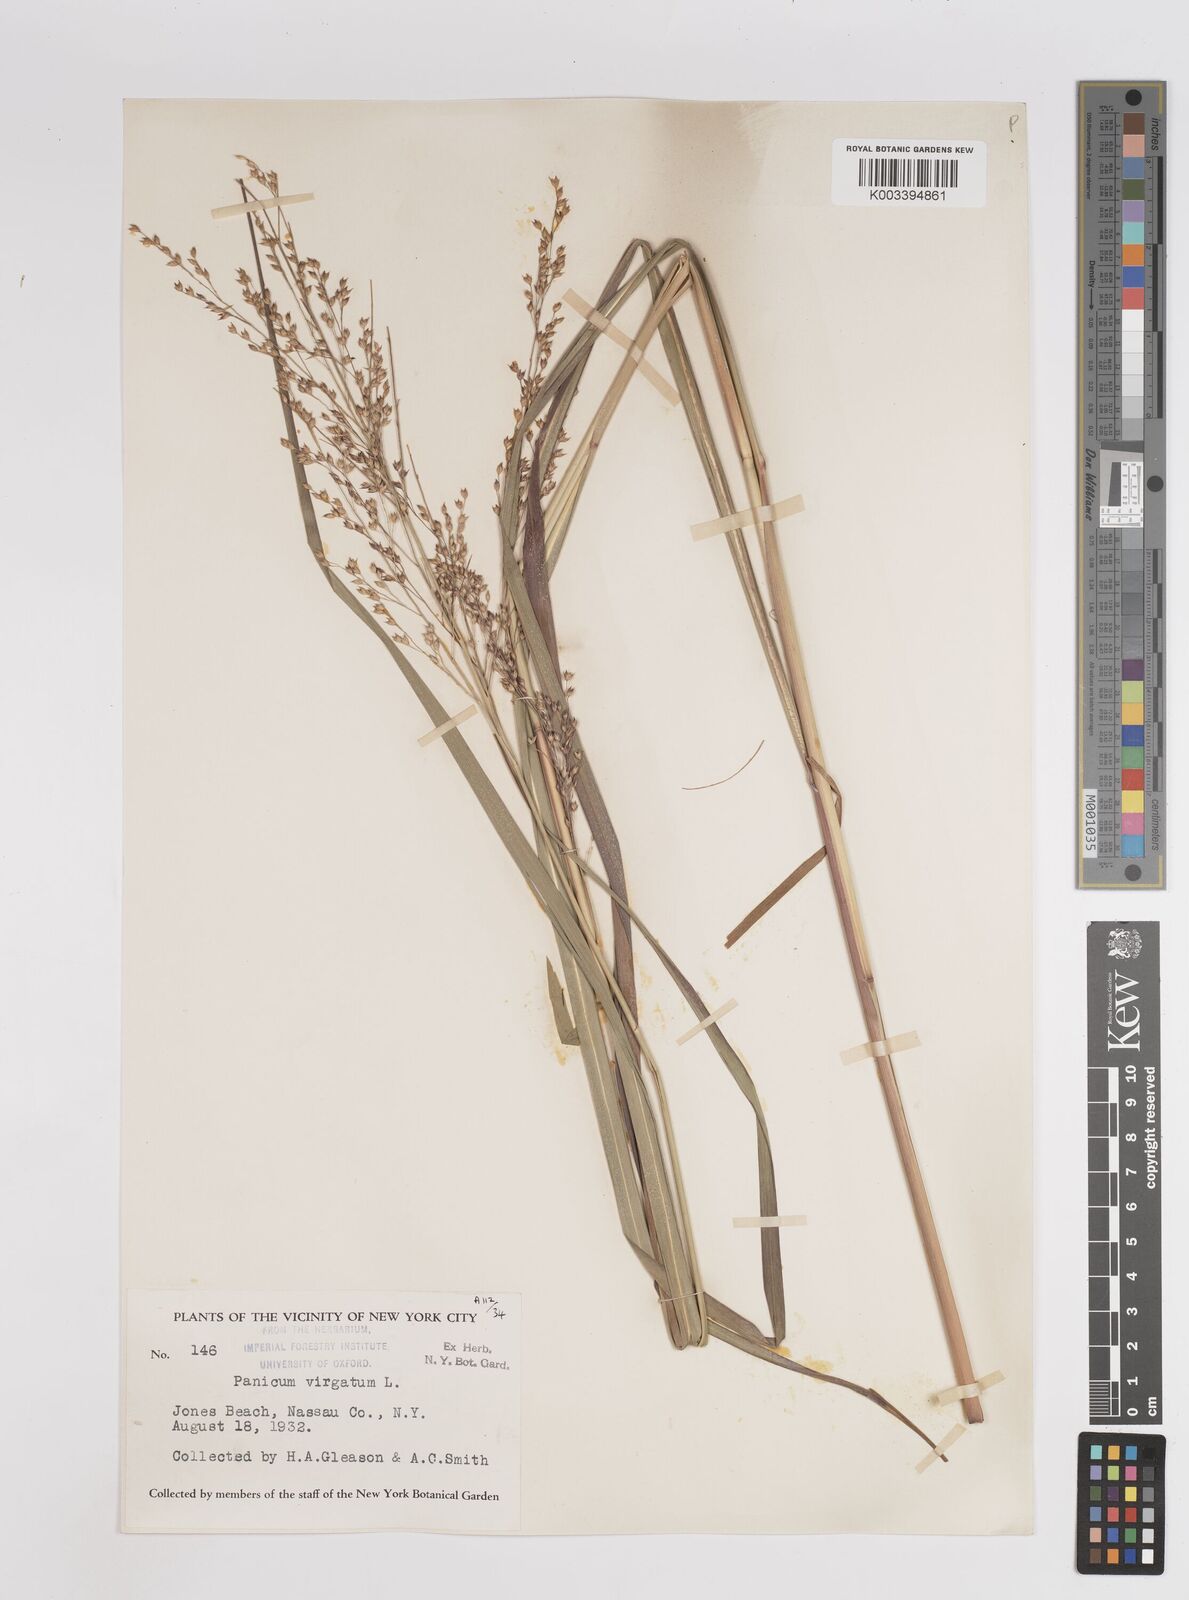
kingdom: Plantae
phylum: Tracheophyta
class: Liliopsida
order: Poales
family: Poaceae
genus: Panicum
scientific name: Panicum virgatum
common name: Switchgrass
